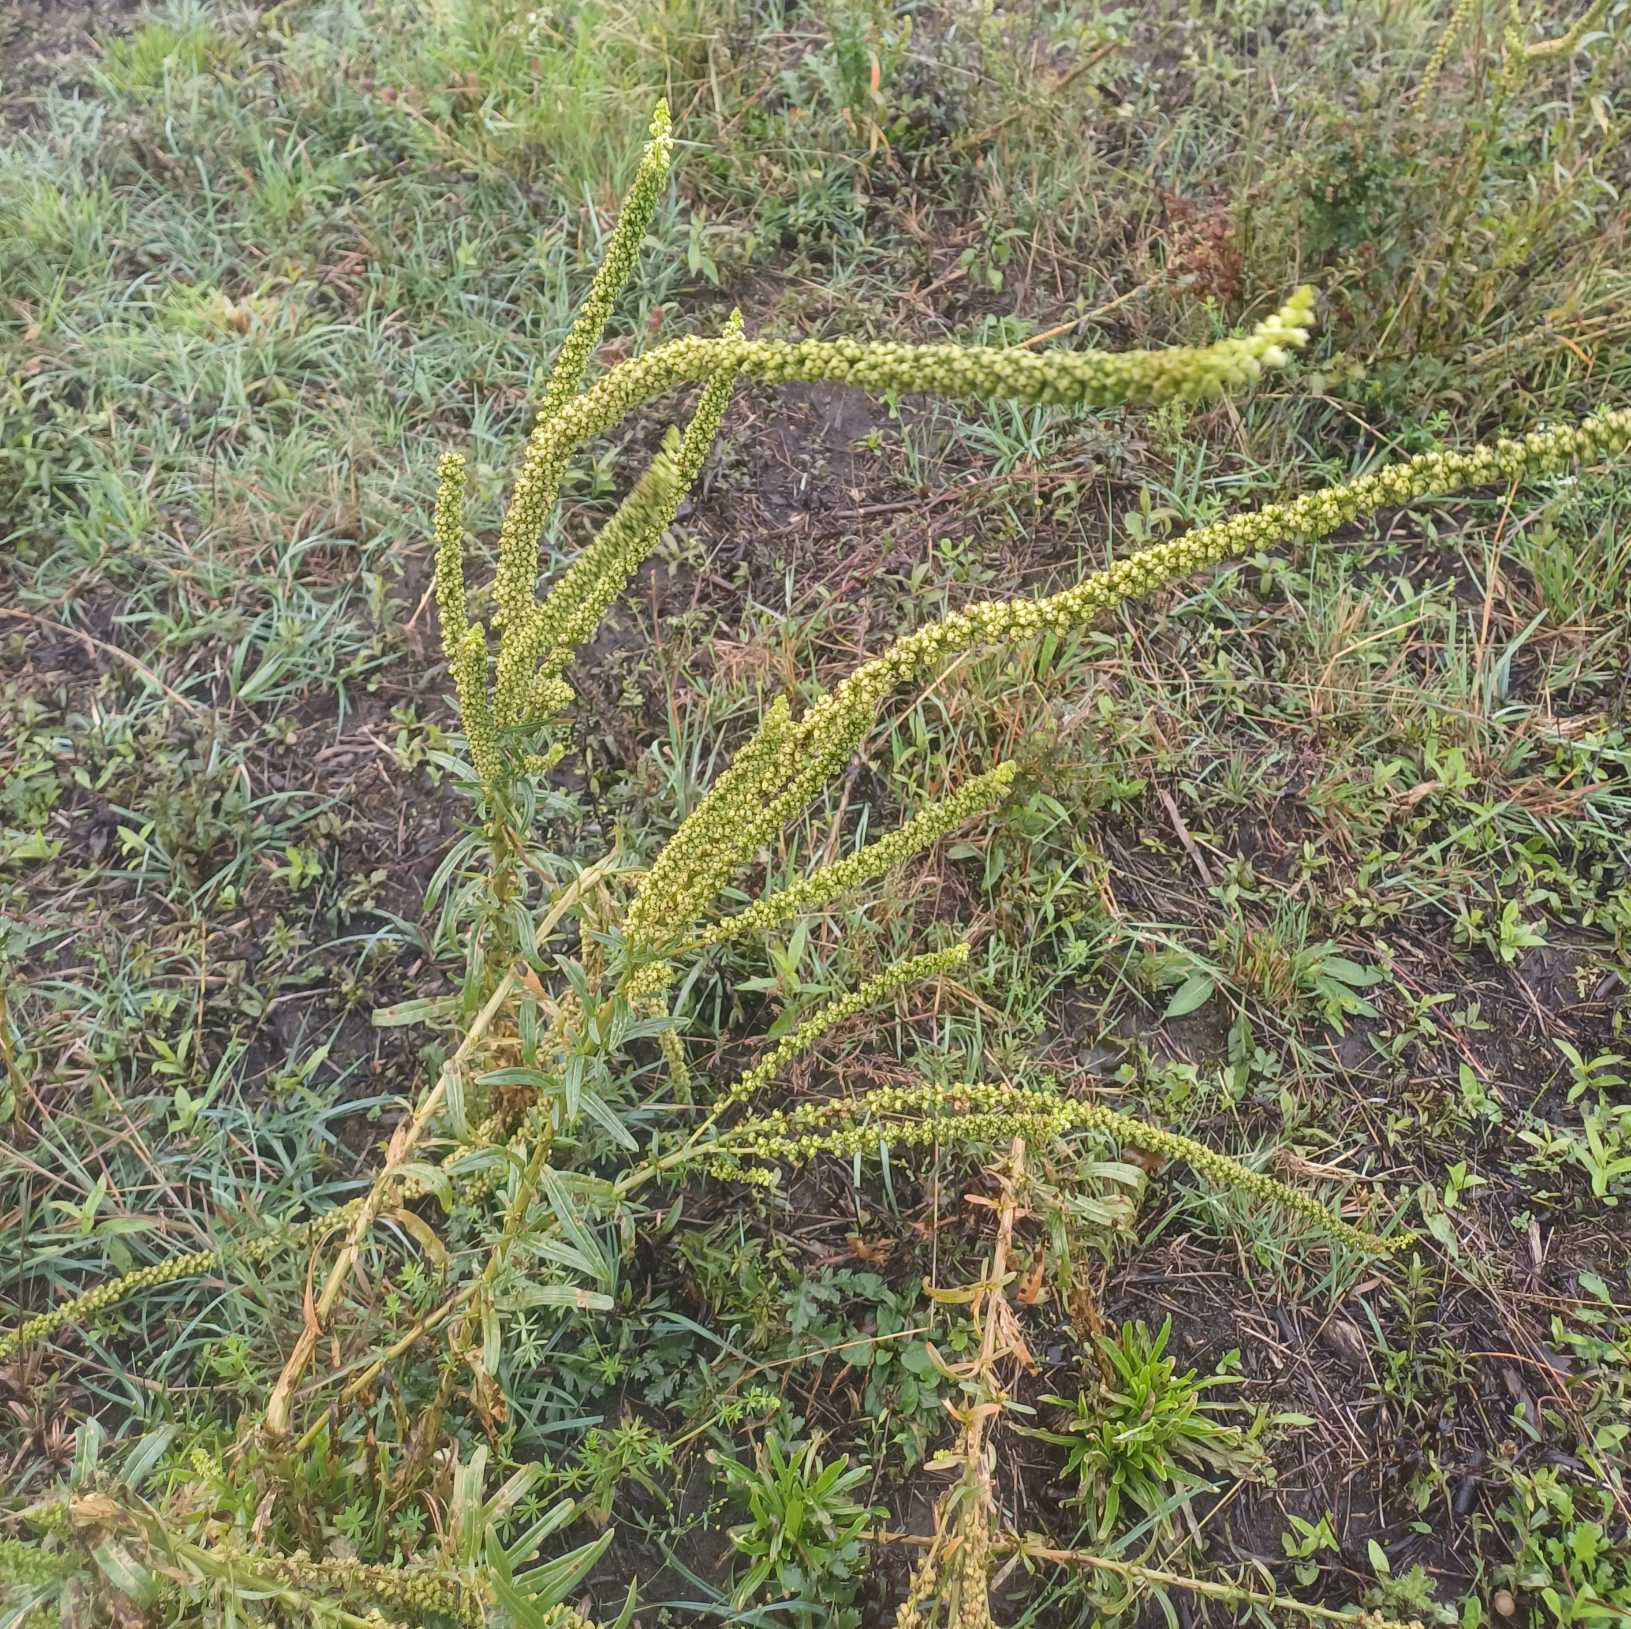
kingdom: Plantae
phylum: Tracheophyta
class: Magnoliopsida
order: Brassicales
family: Resedaceae
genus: Reseda
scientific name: Reseda luteola
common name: Farve-reseda
